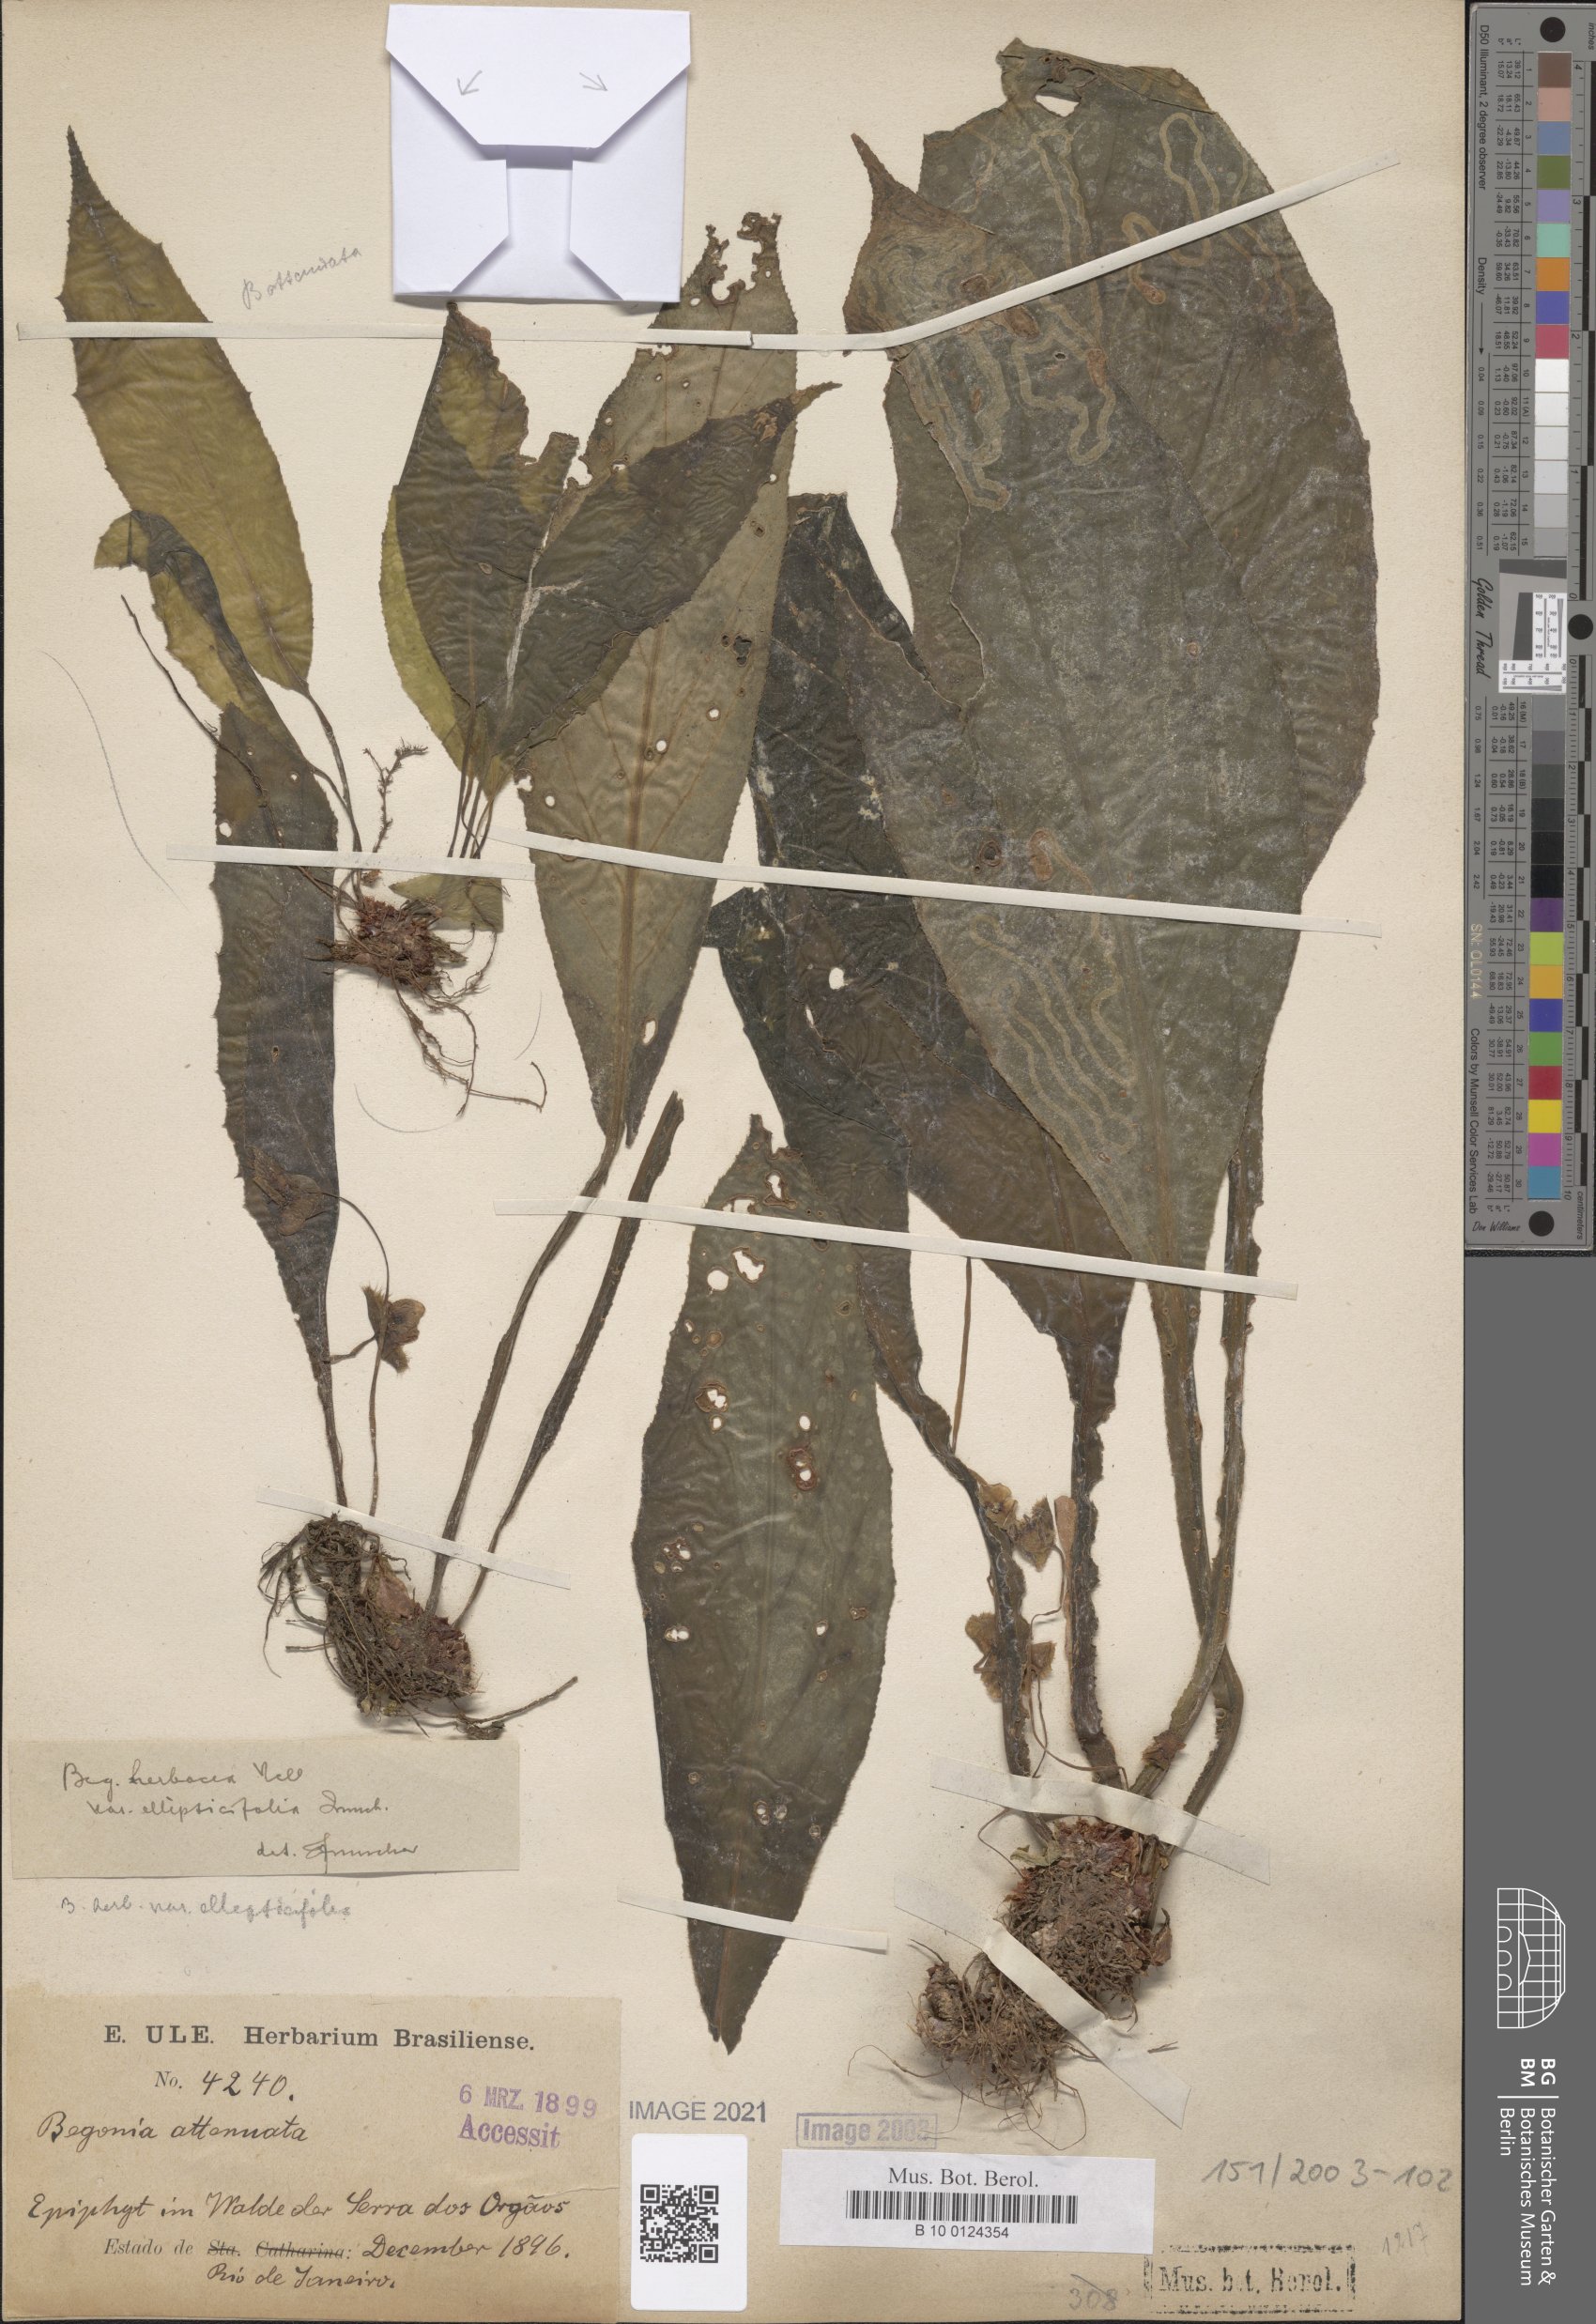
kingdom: Plantae
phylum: Tracheophyta
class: Magnoliopsida
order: Cucurbitales
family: Begoniaceae
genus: Begonia
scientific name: Begonia herbacea
